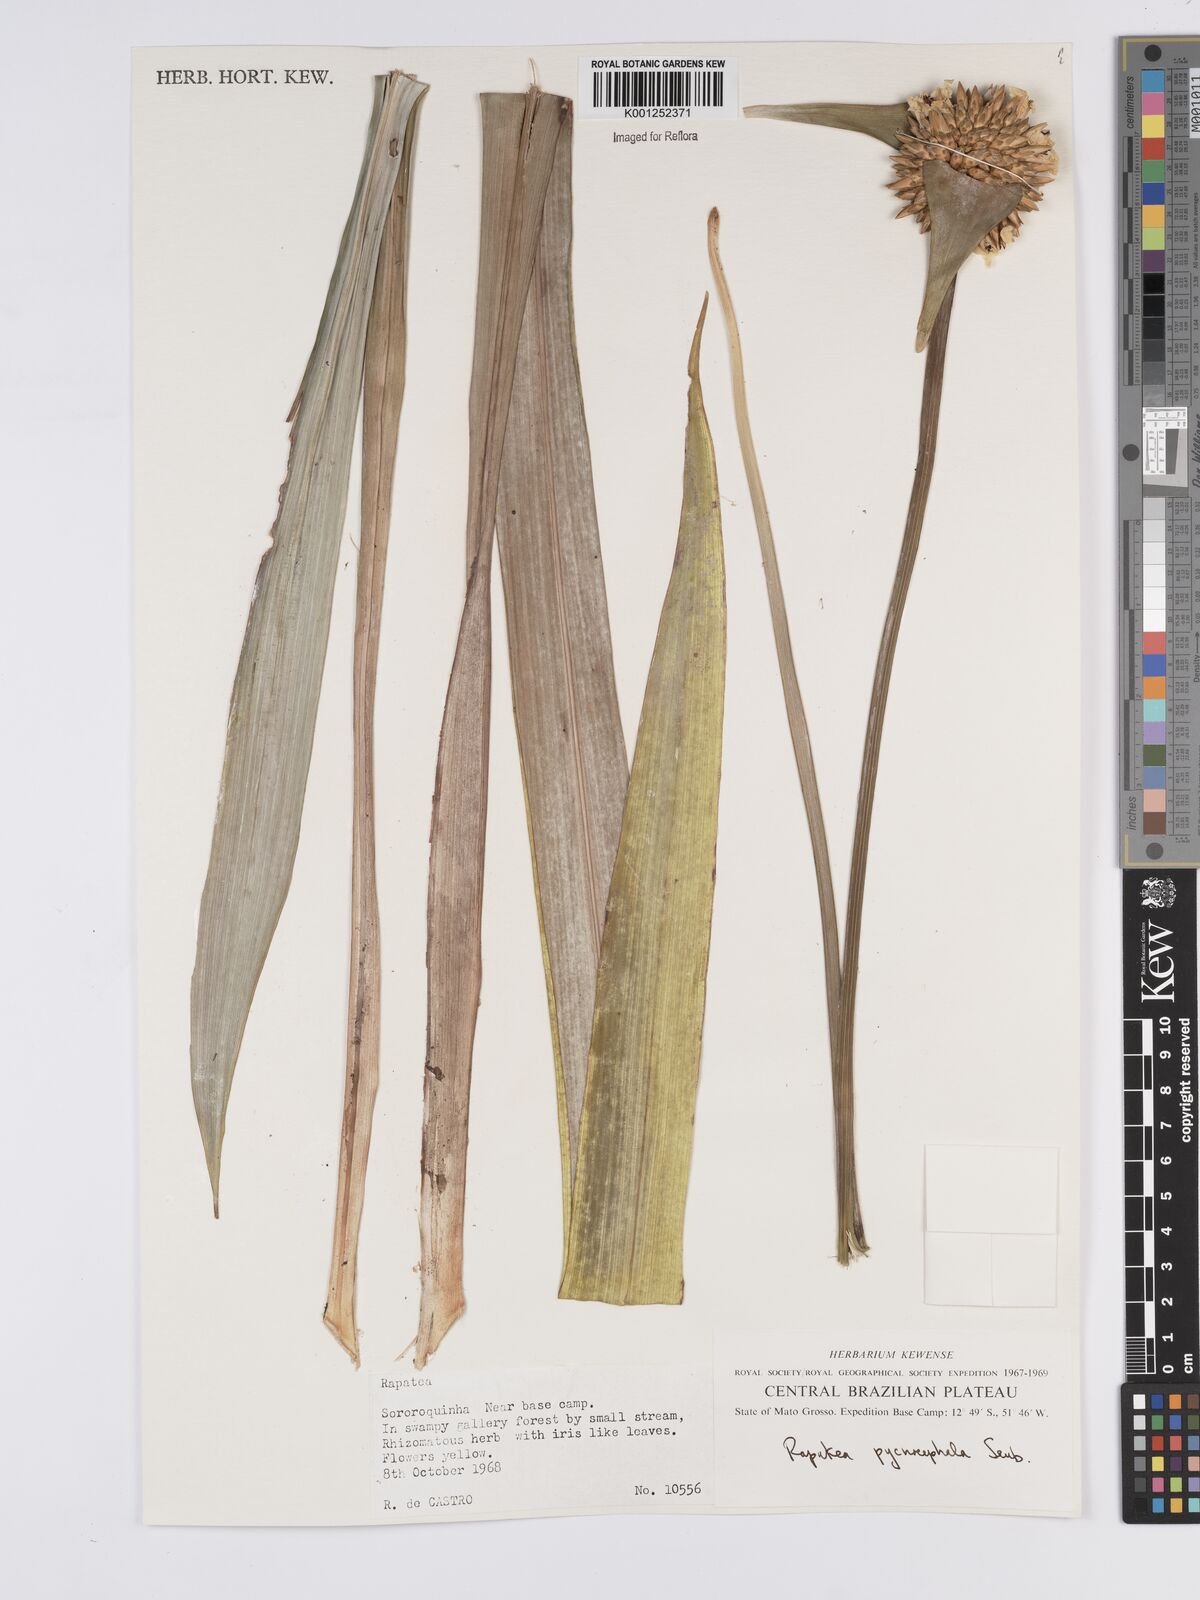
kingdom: Plantae
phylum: Tracheophyta
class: Liliopsida
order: Poales
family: Rapateaceae
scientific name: Rapateaceae
